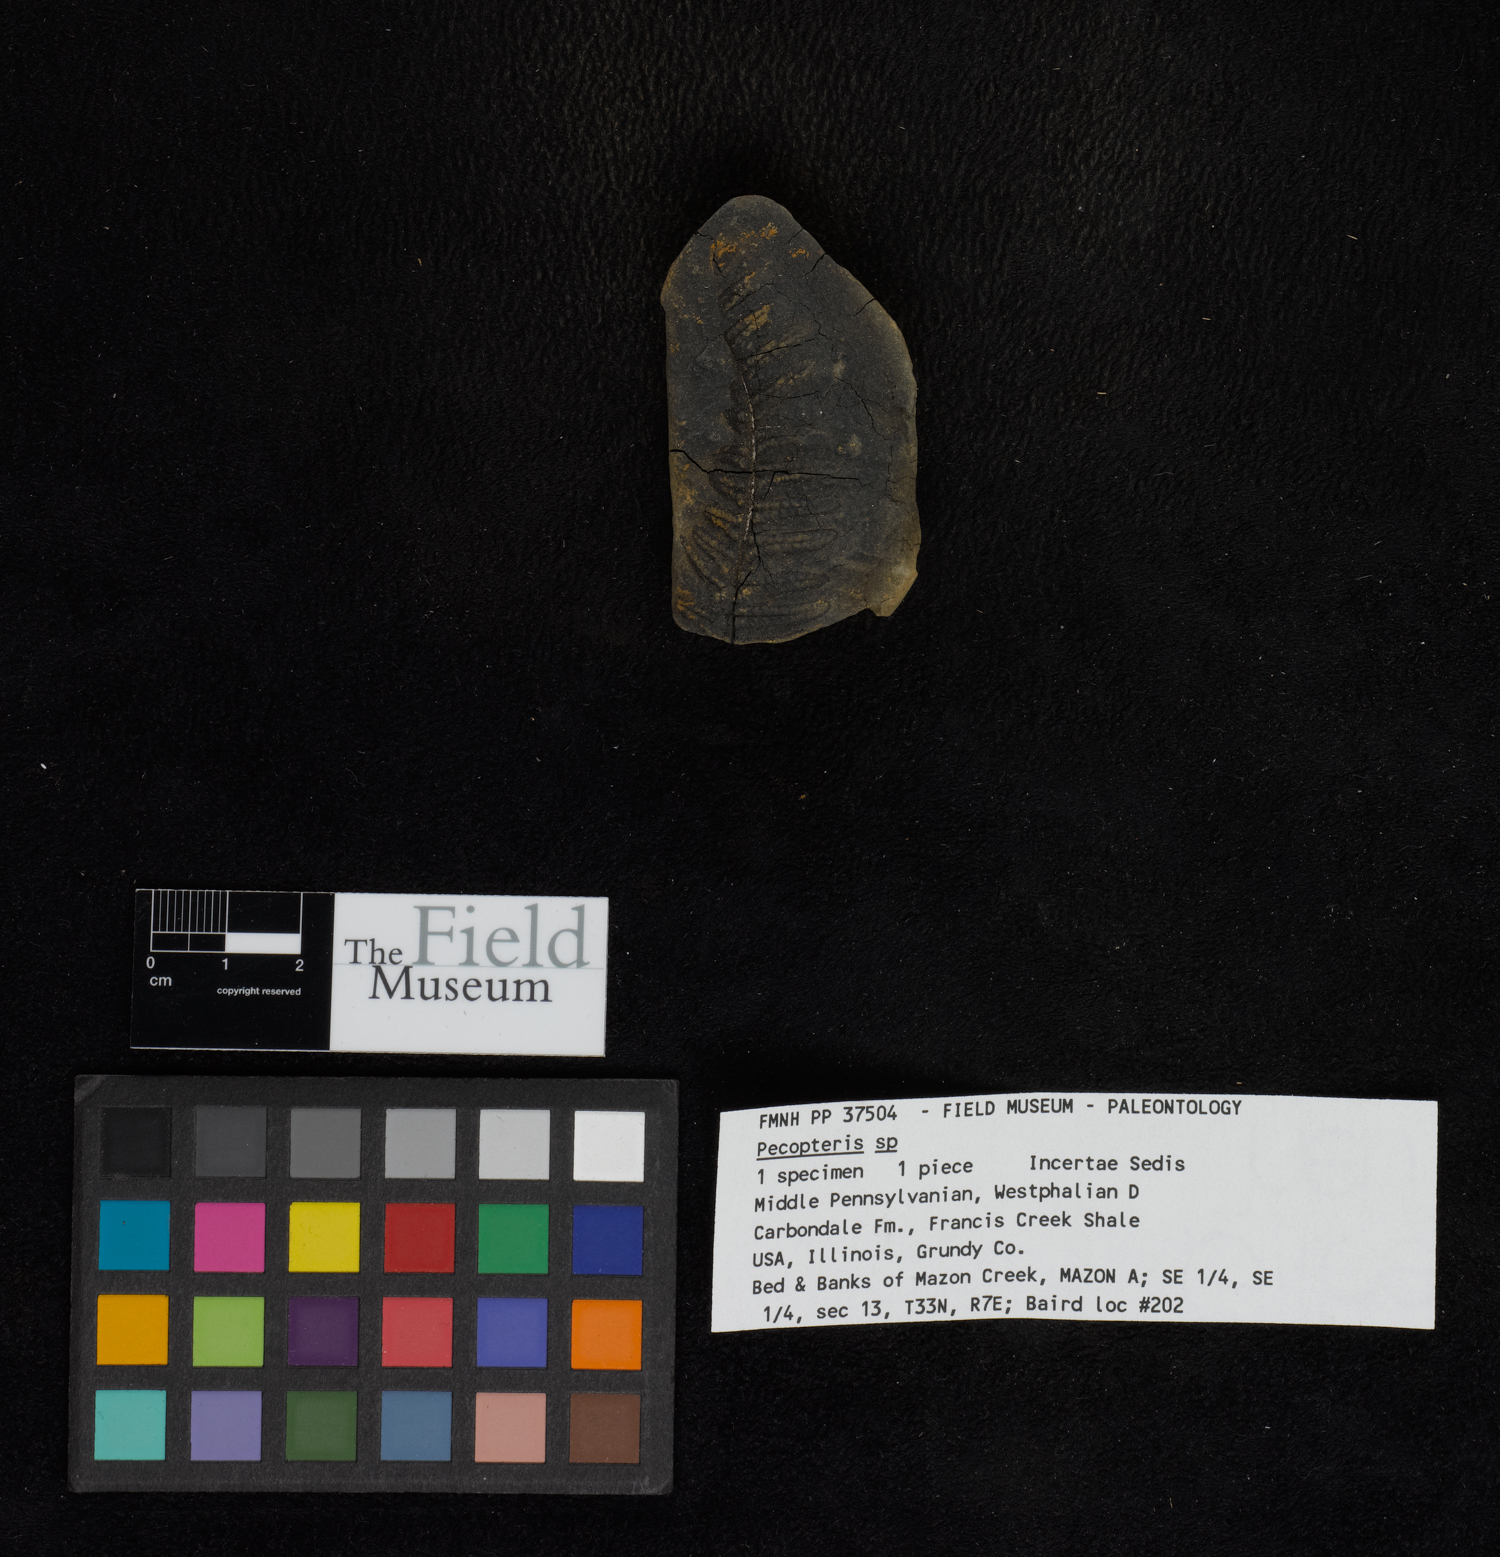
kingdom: Plantae
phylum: Tracheophyta
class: Polypodiopsida
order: Marattiales
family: Asterothecaceae
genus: Pecopteris
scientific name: Pecopteris
